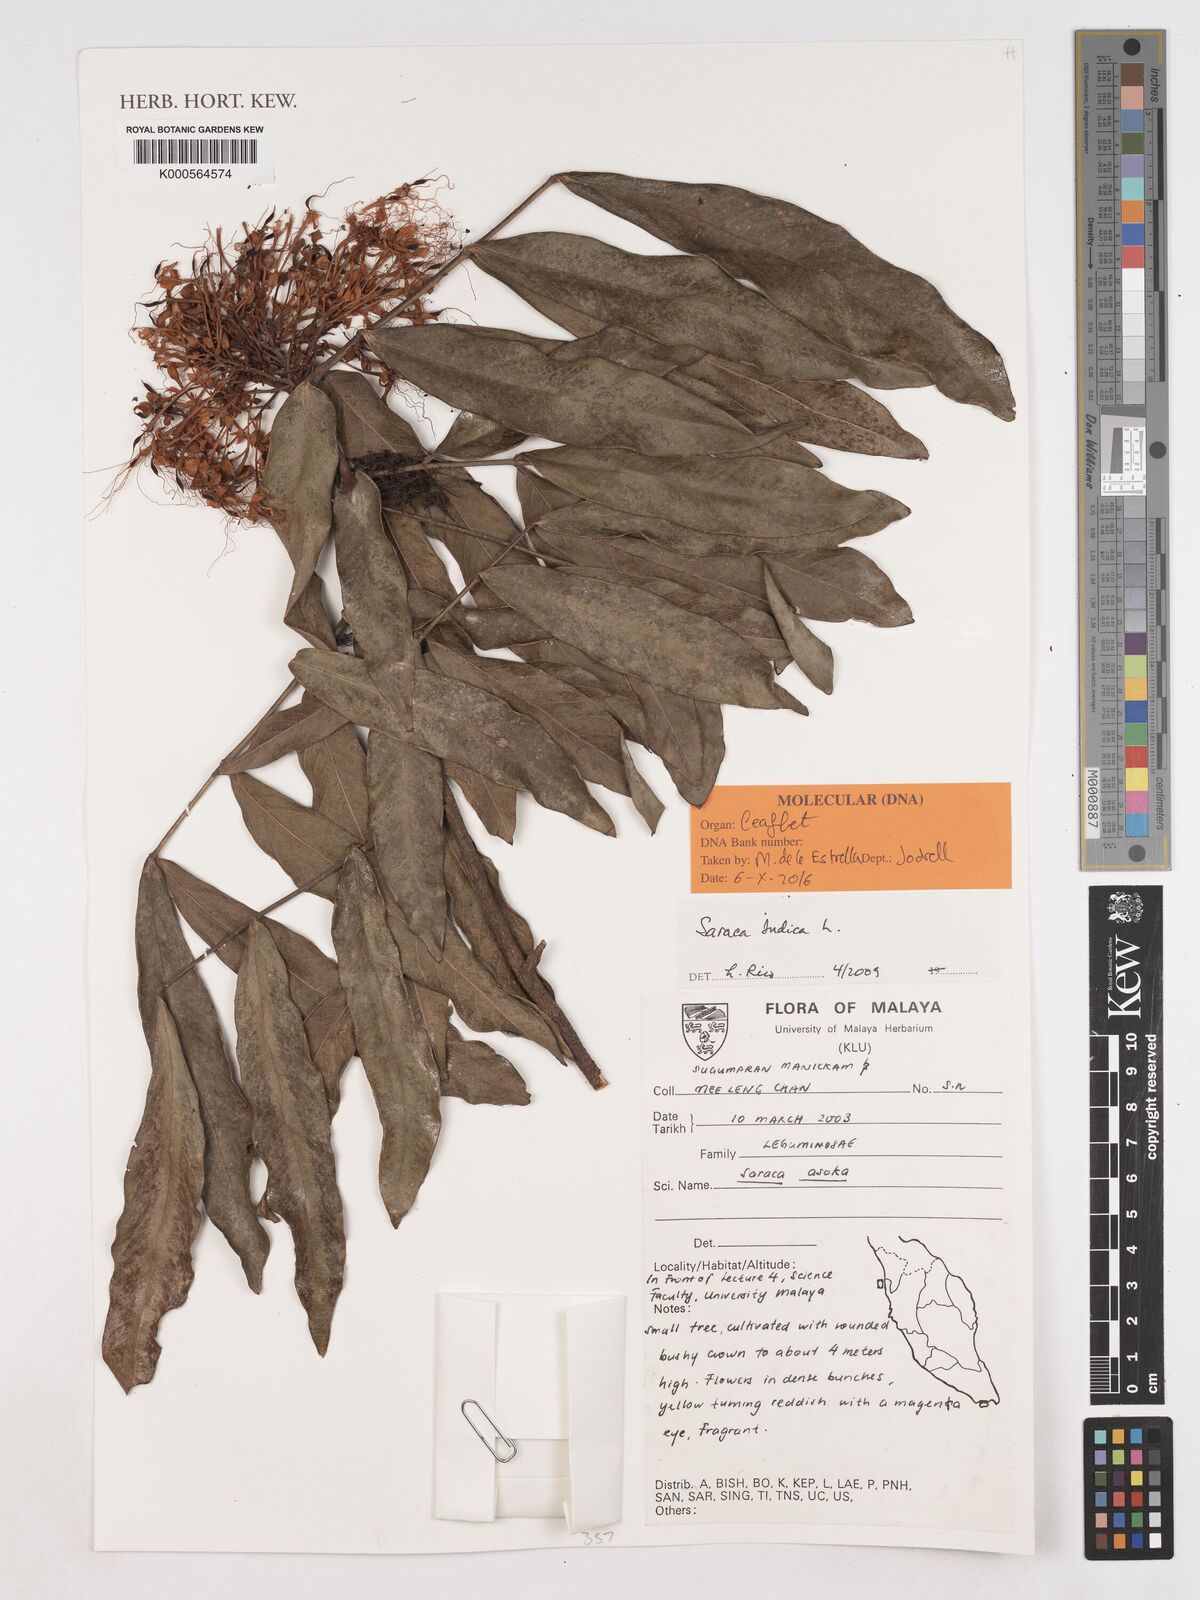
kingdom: Plantae
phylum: Tracheophyta
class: Magnoliopsida
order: Fabales
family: Fabaceae
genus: Saraca
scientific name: Saraca indica
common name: Asoka-tree
